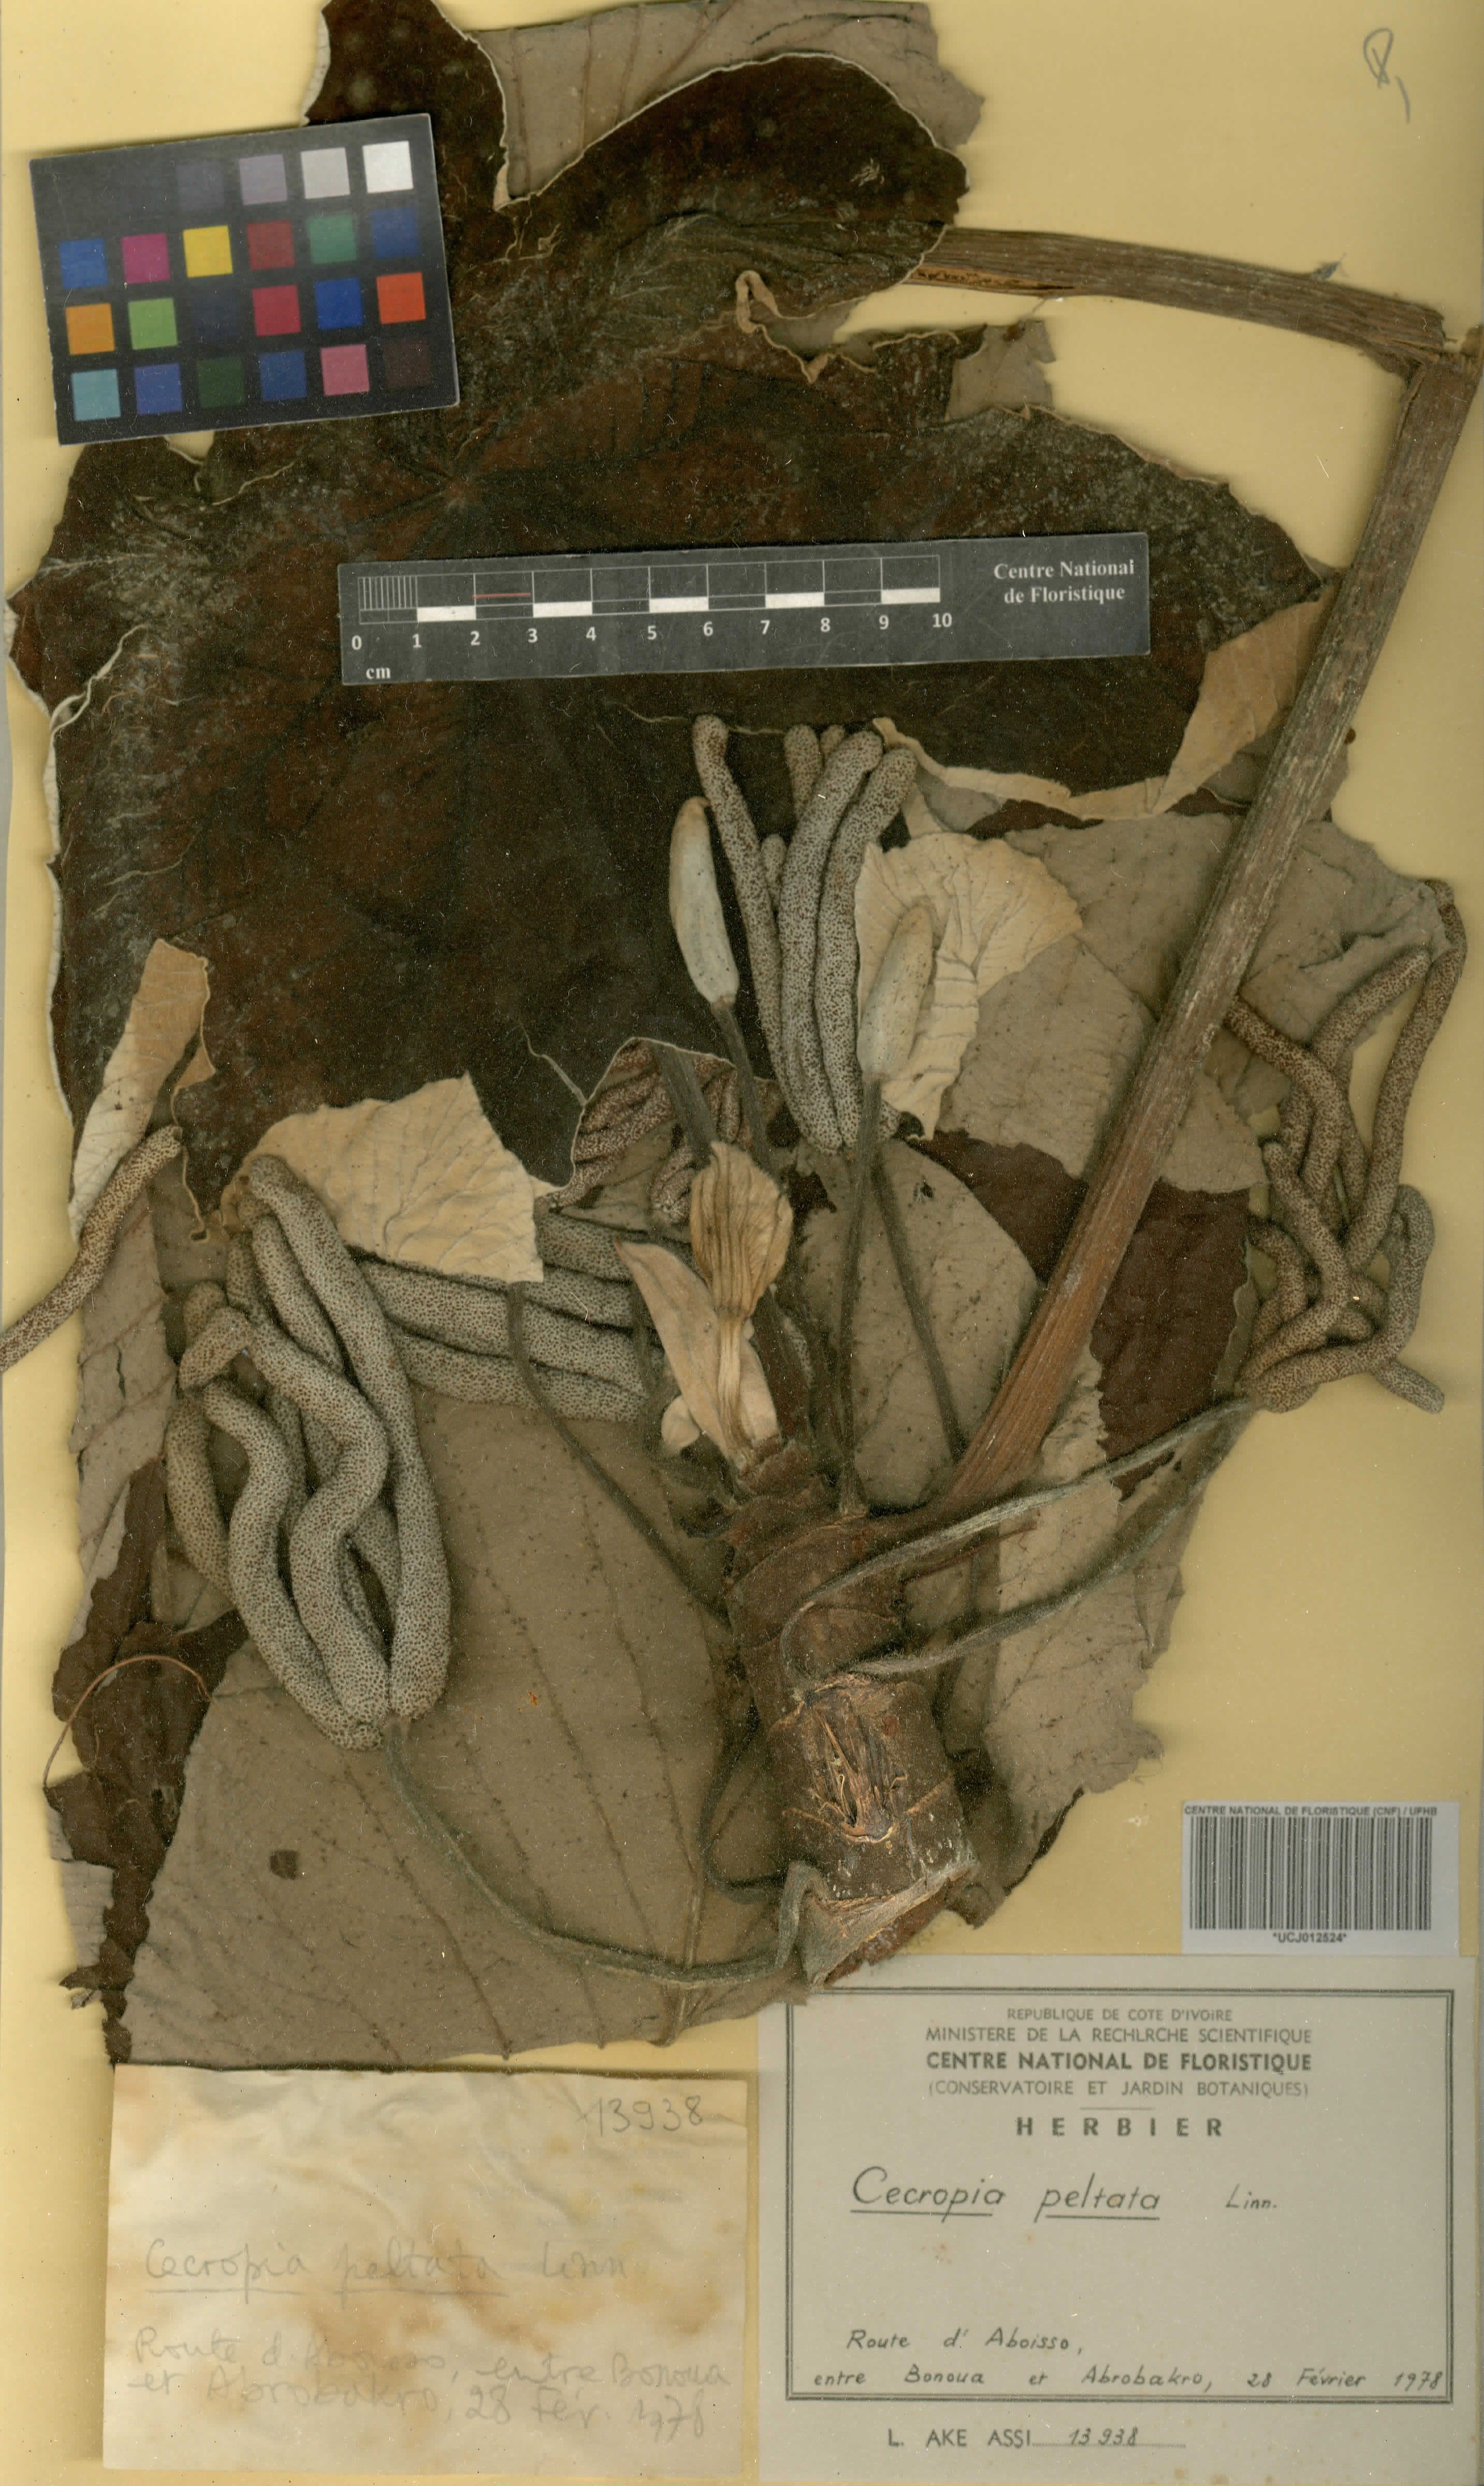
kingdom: Plantae
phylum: Tracheophyta
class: Magnoliopsida
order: Rosales
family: Urticaceae
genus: Cecropia
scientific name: Cecropia peltata
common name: Trumpet-tree
